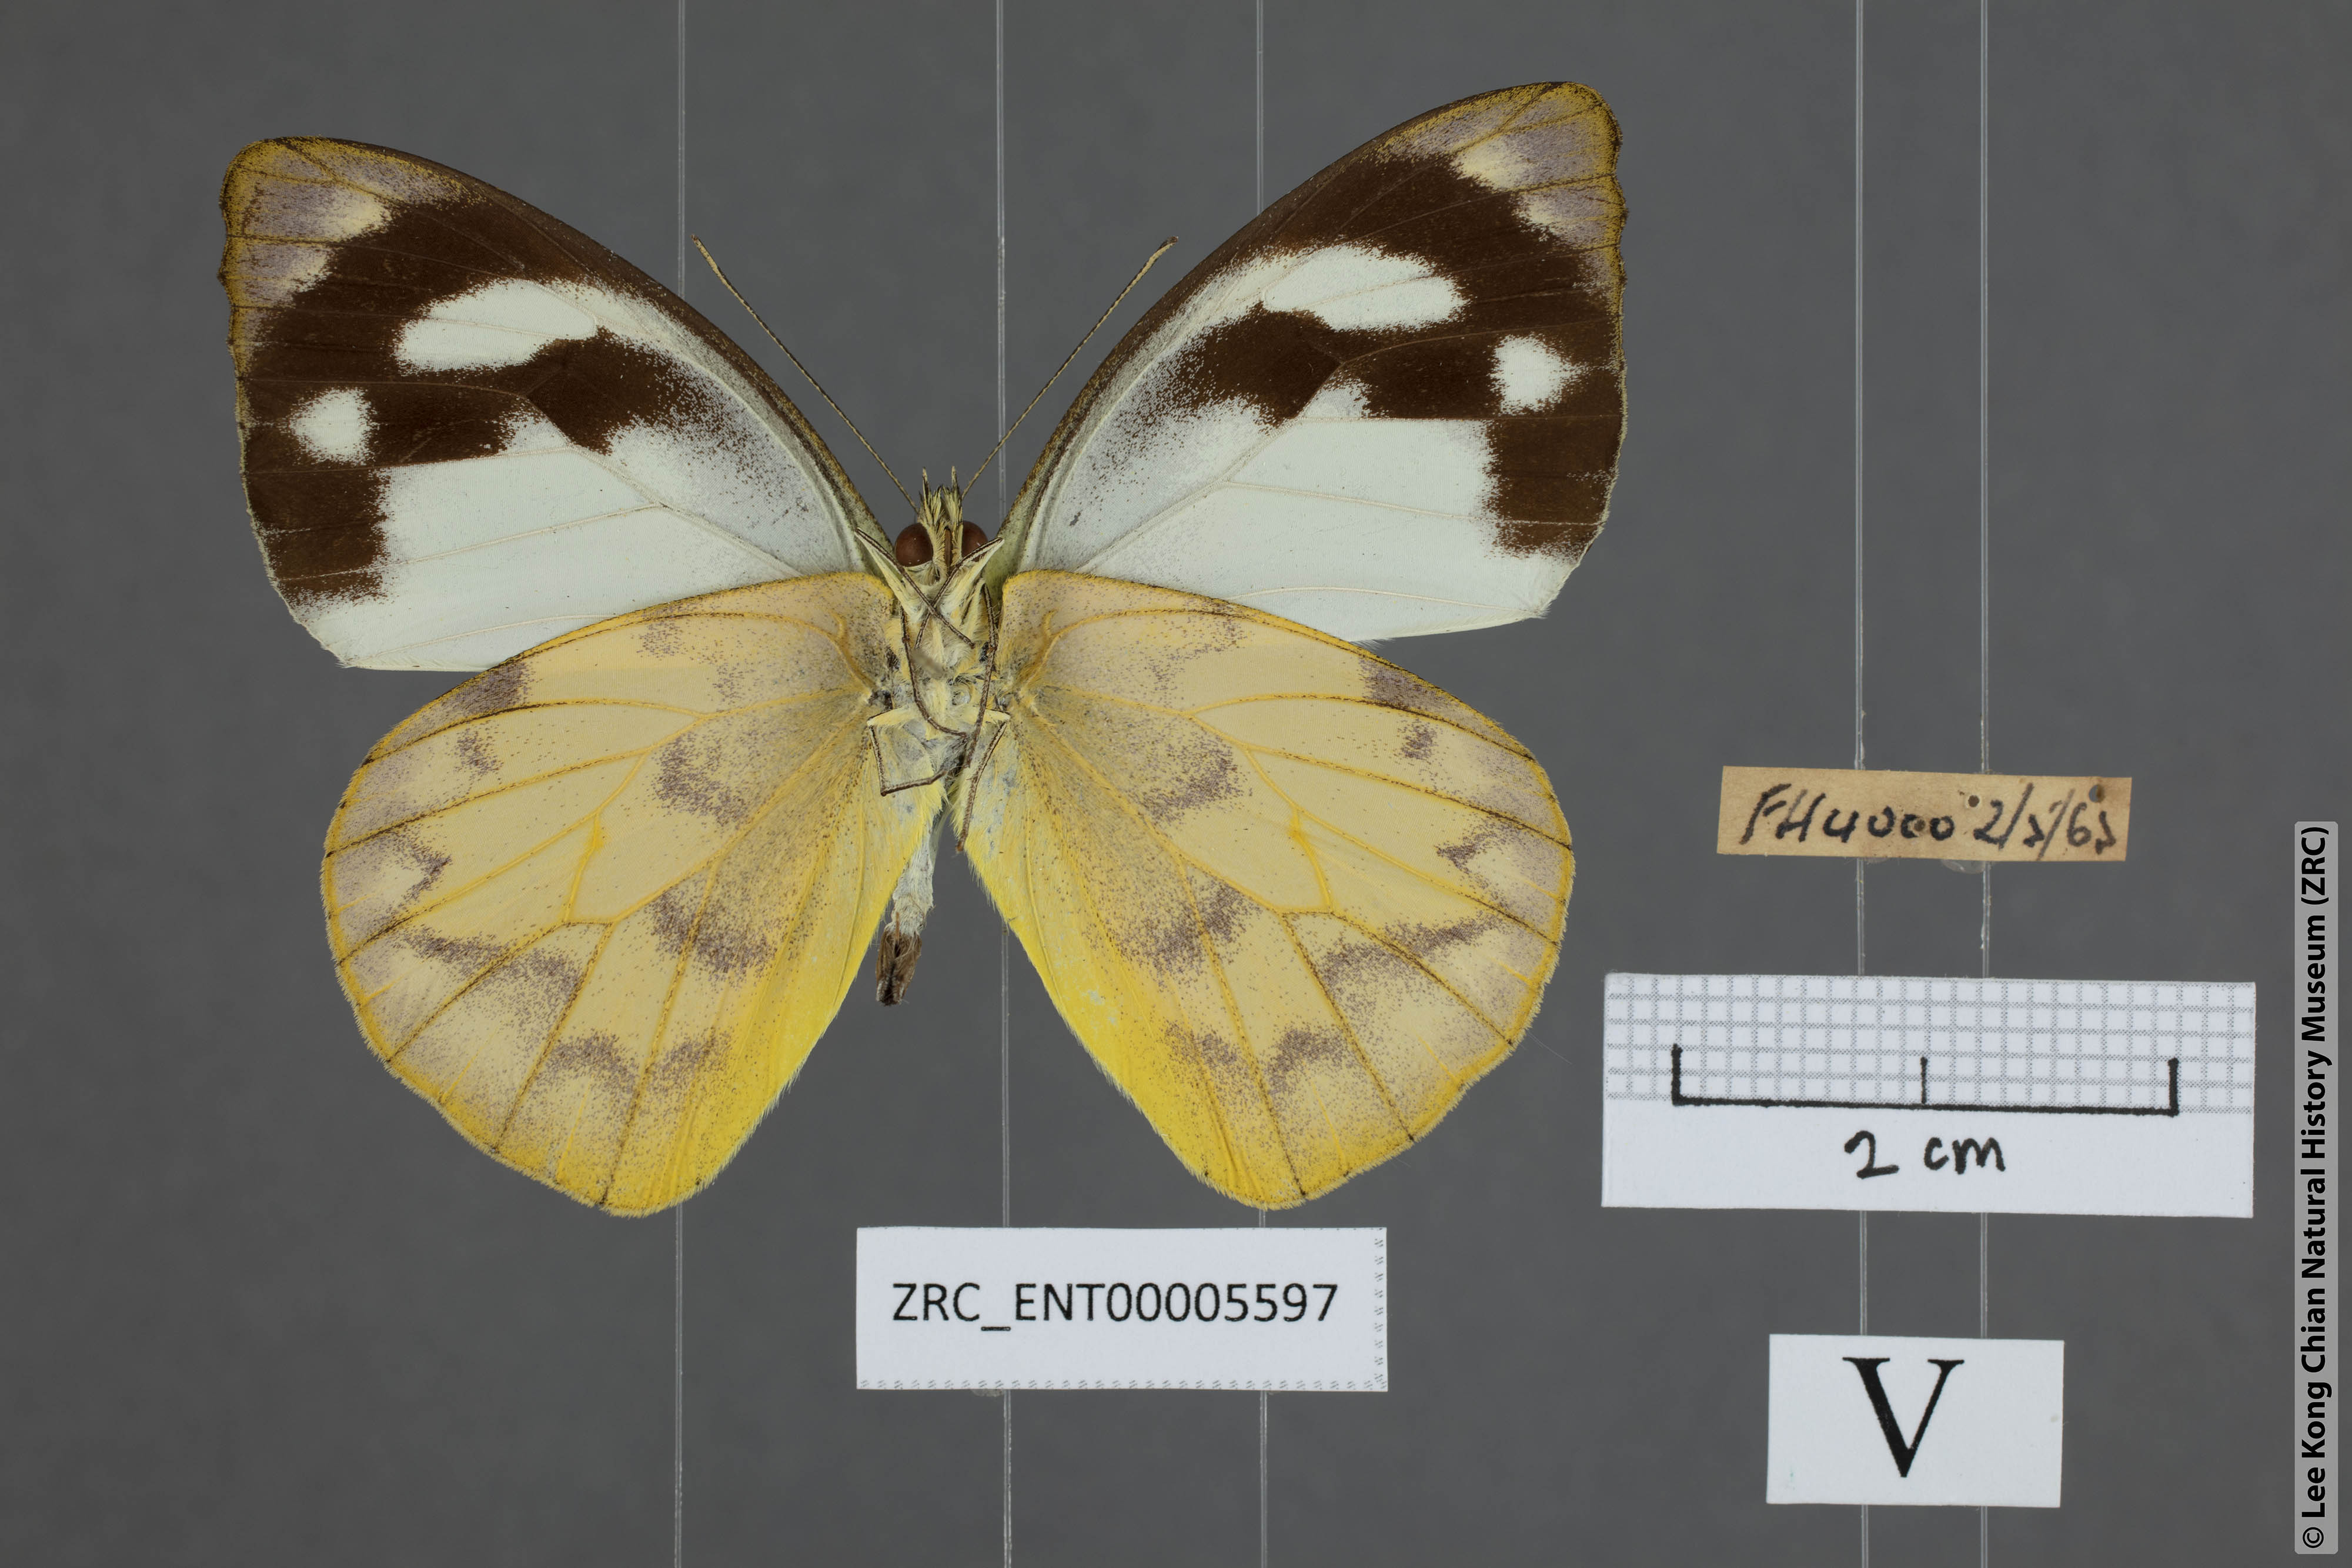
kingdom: Animalia
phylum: Arthropoda
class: Insecta
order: Lepidoptera
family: Pieridae
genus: Appias
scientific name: Appias pandione
